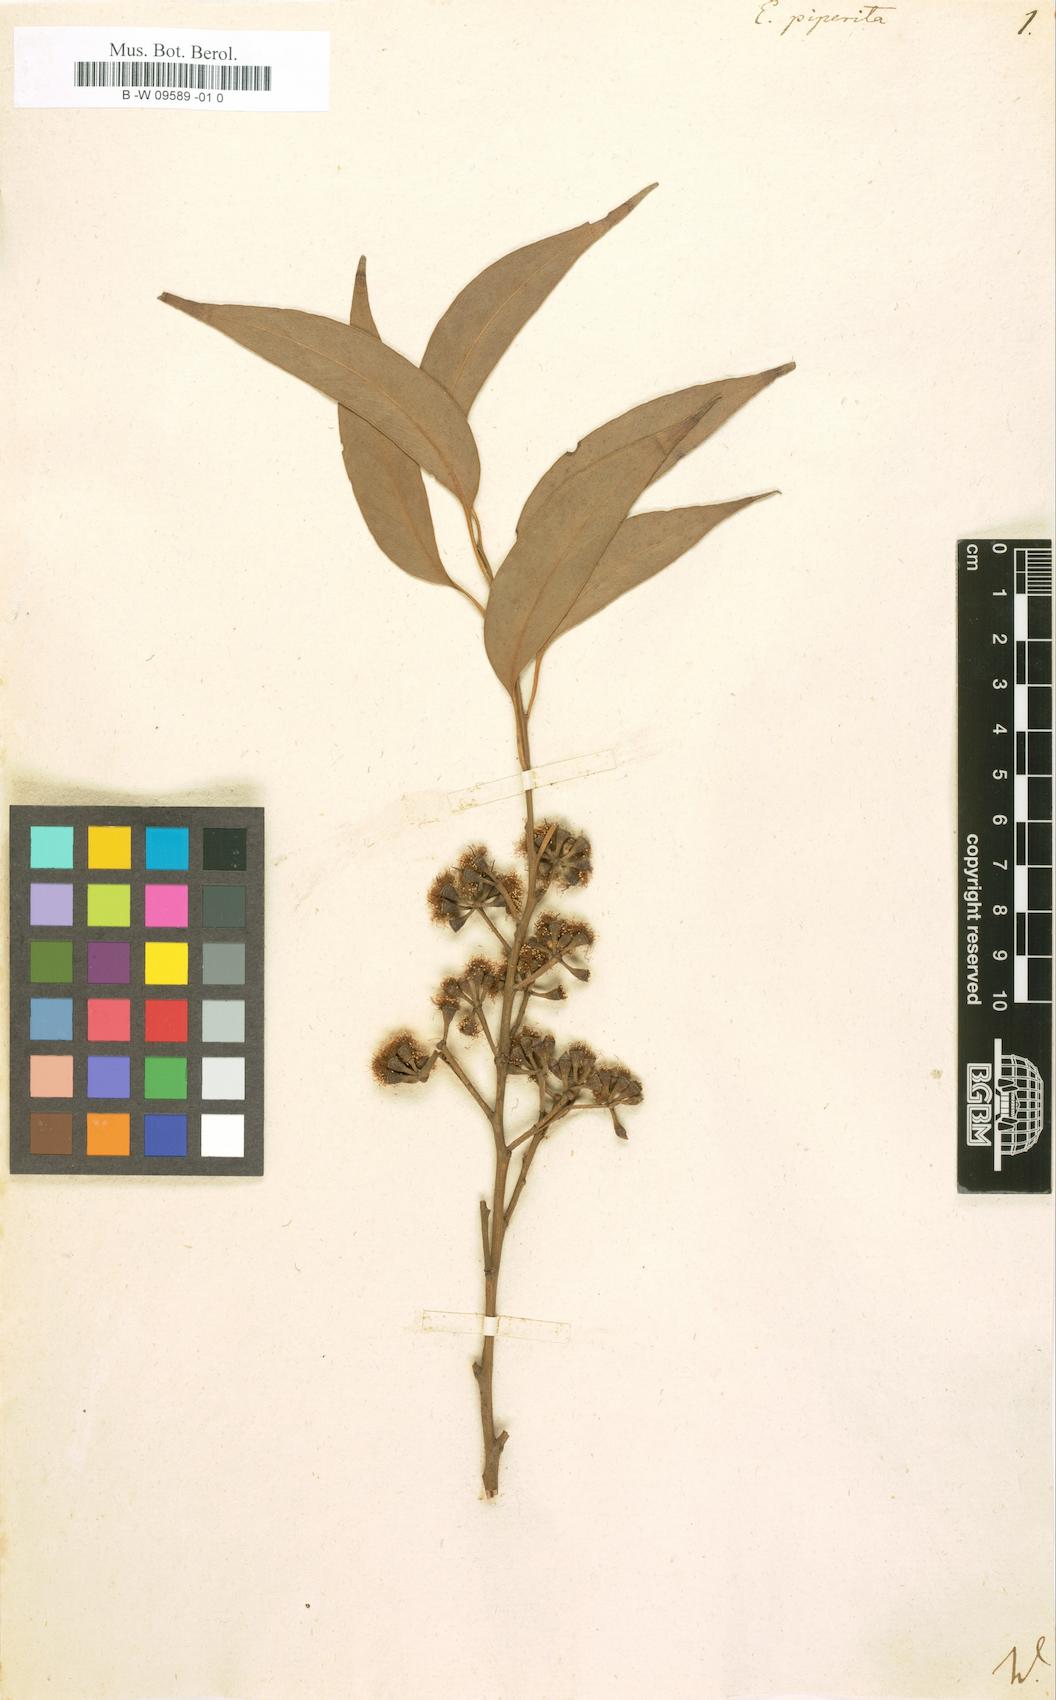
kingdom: Plantae
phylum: Tracheophyta
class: Magnoliopsida
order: Myrtales
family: Myrtaceae
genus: Eucalyptus
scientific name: Eucalyptus piperita
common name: Sydney peppermint
